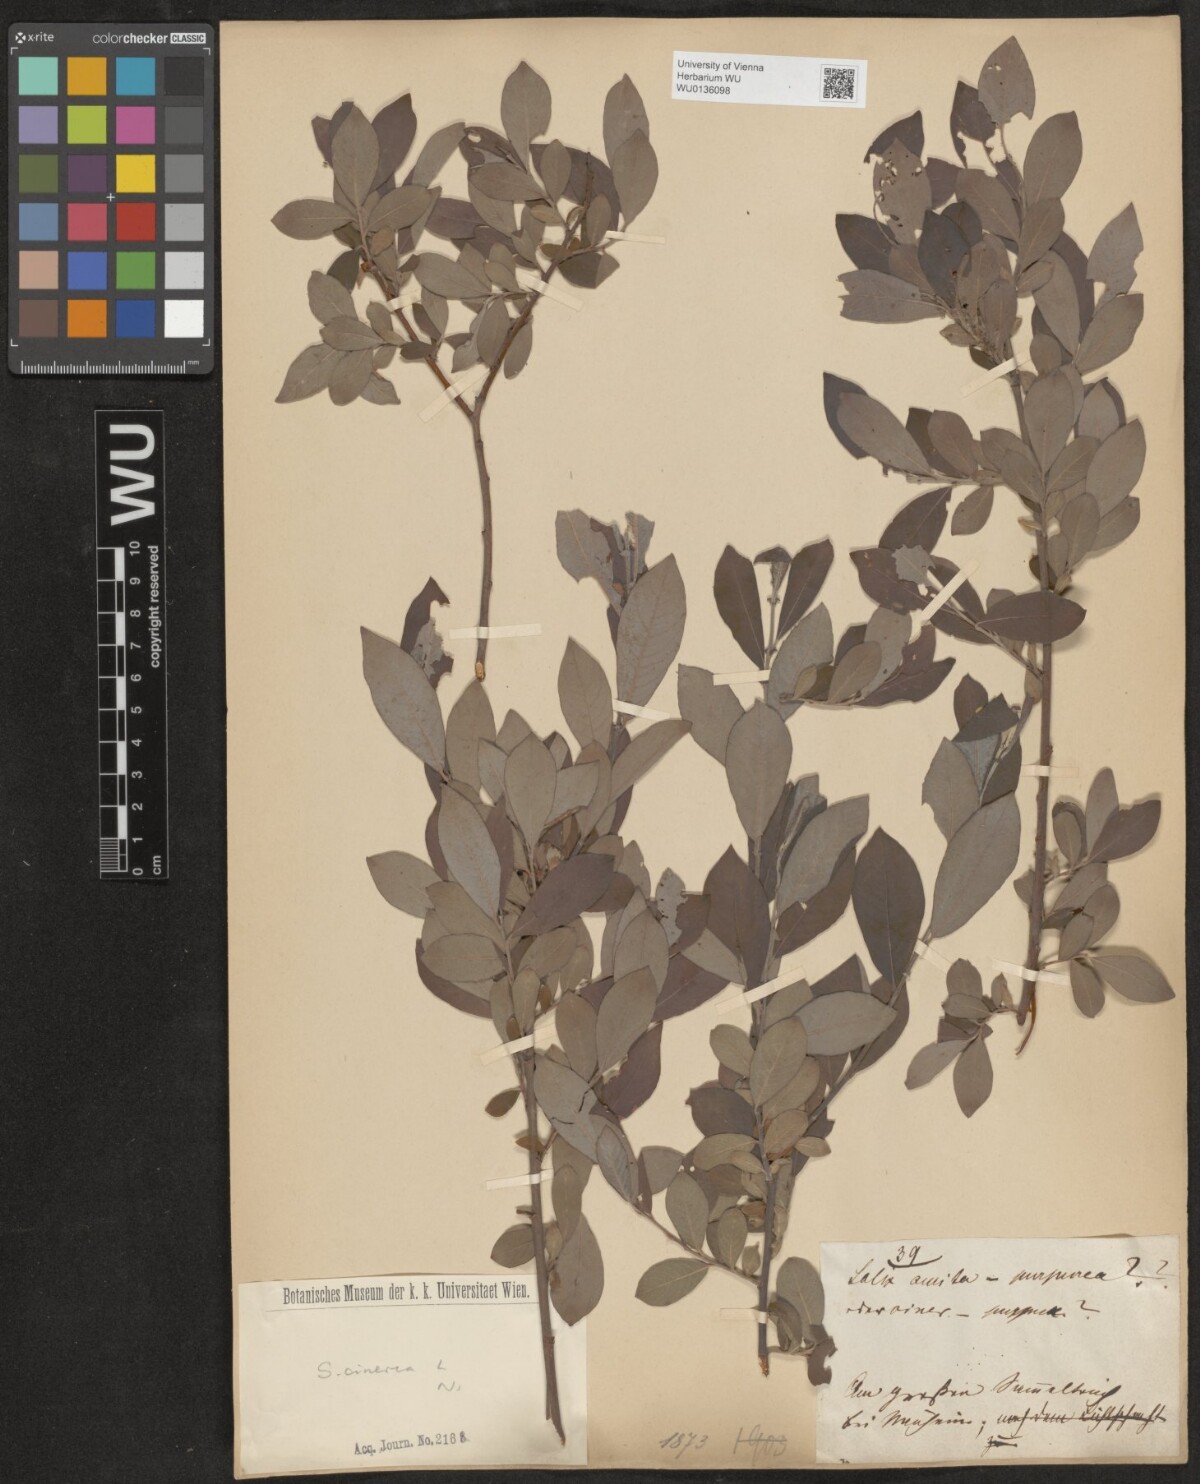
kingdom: Plantae
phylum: Tracheophyta
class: Magnoliopsida
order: Malpighiales
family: Salicaceae
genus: Salix
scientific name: Salix cinerea
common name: Common sallow
